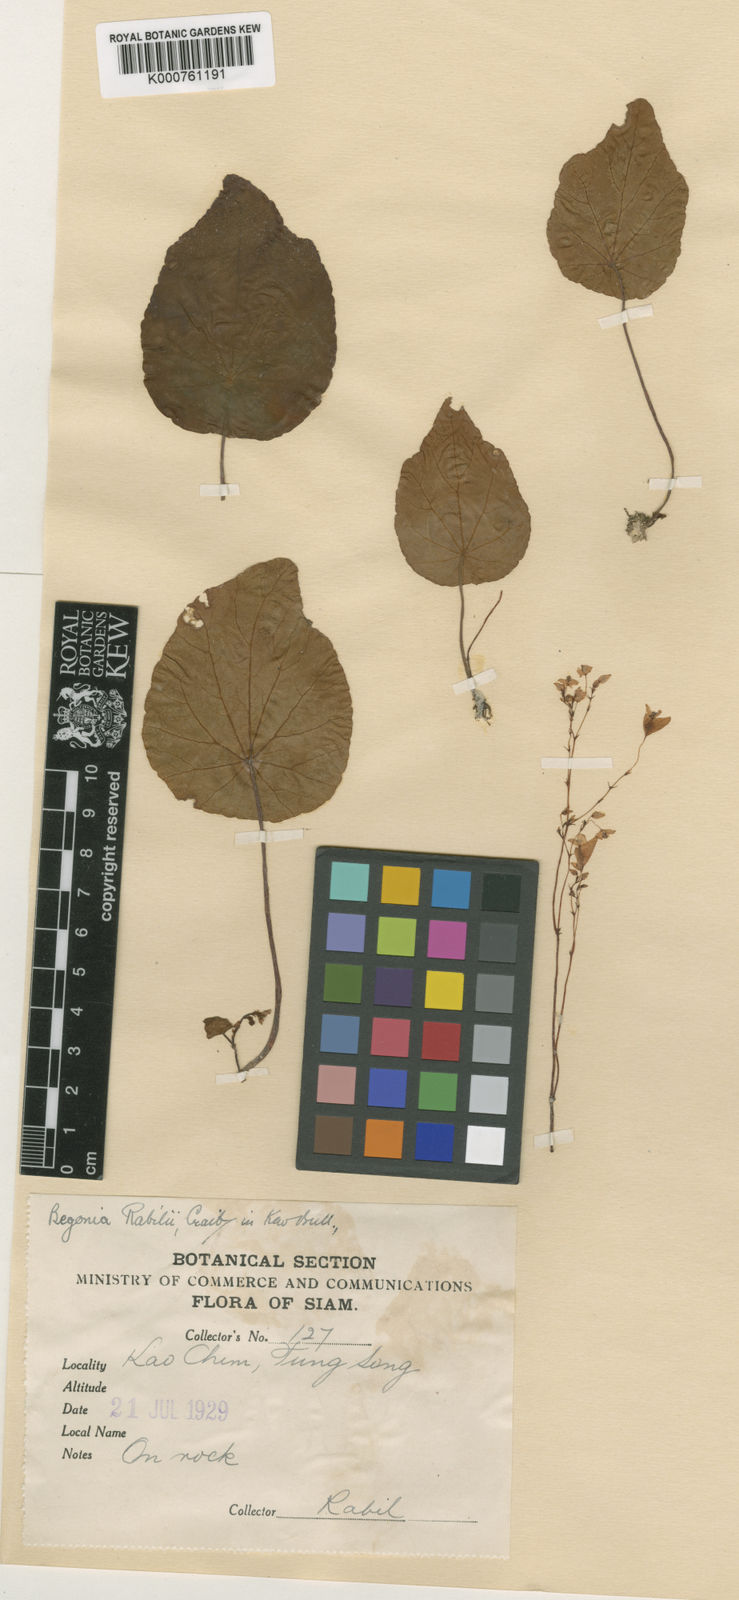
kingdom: Plantae
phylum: Tracheophyta
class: Magnoliopsida
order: Cucurbitales
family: Begoniaceae
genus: Begonia
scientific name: Begonia pumilio
